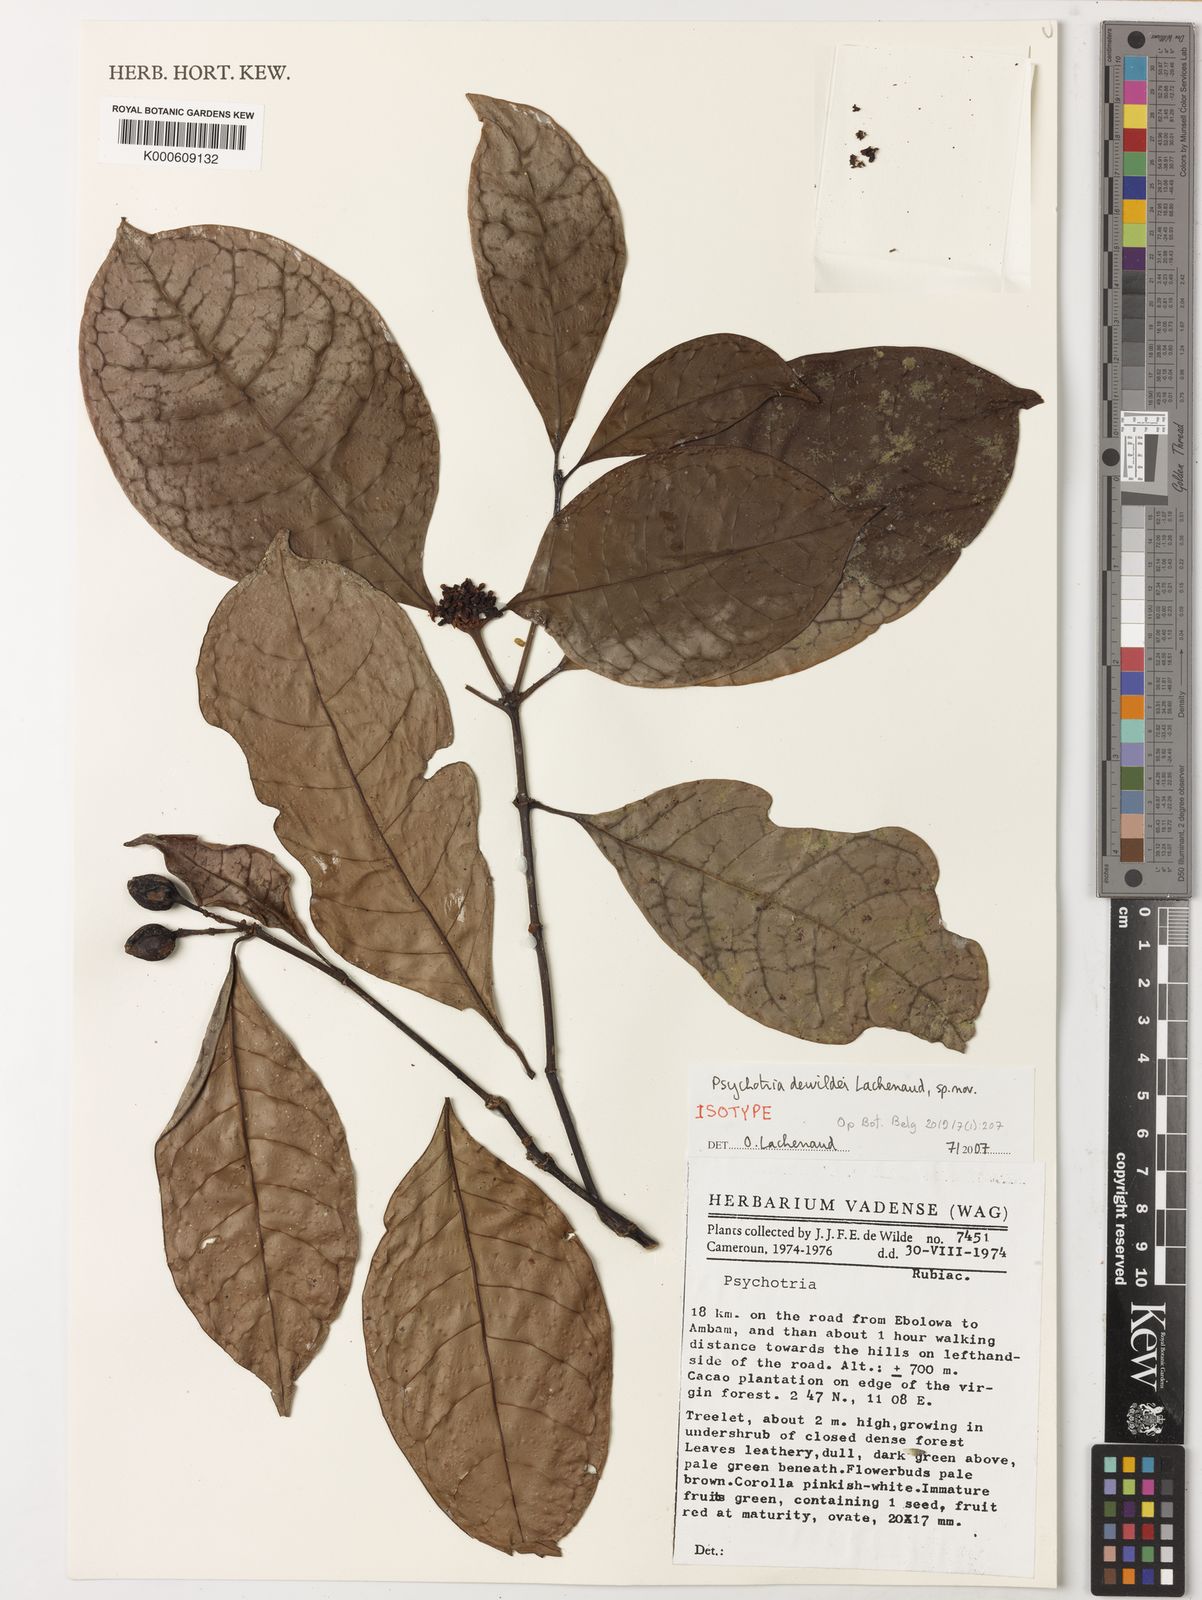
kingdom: Plantae
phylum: Tracheophyta
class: Magnoliopsida
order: Gentianales
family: Rubiaceae
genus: Psychotria
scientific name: Psychotria dewildei
